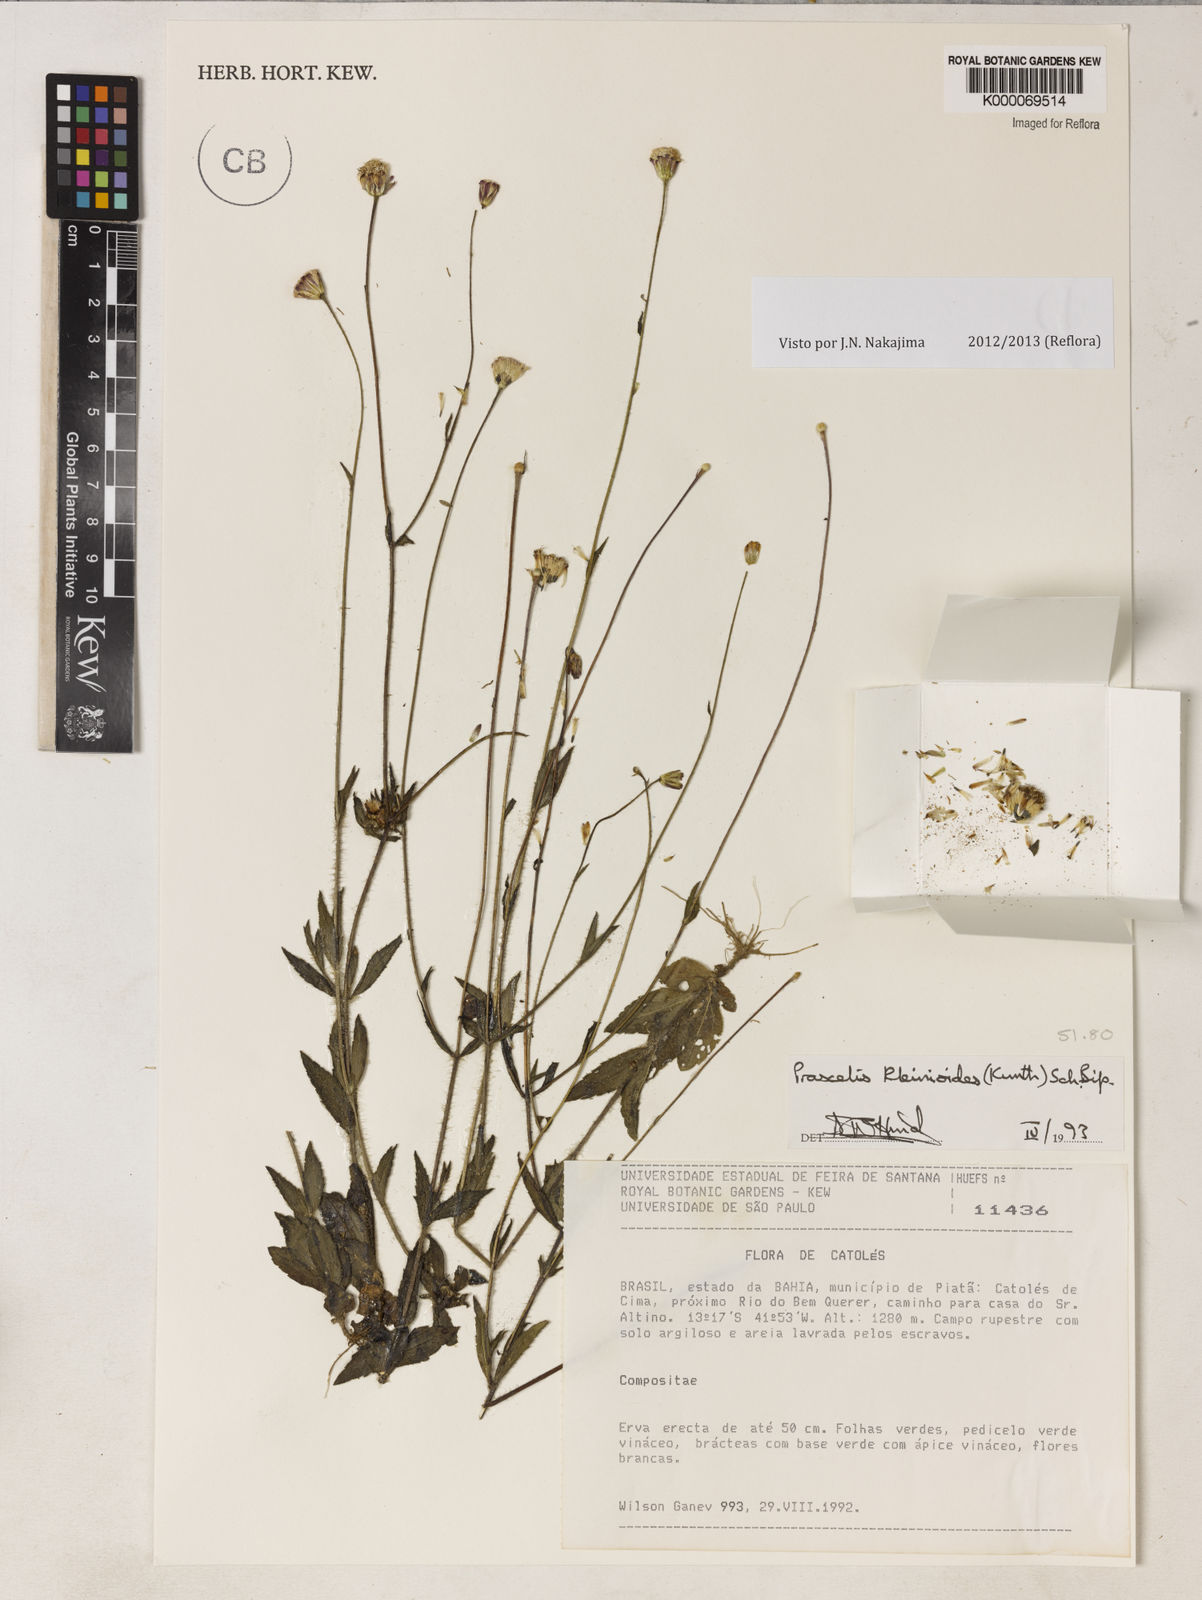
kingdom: Plantae
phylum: Tracheophyta
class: Magnoliopsida
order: Asterales
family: Asteraceae
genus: Praxelis
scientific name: Praxelis kleinioides
